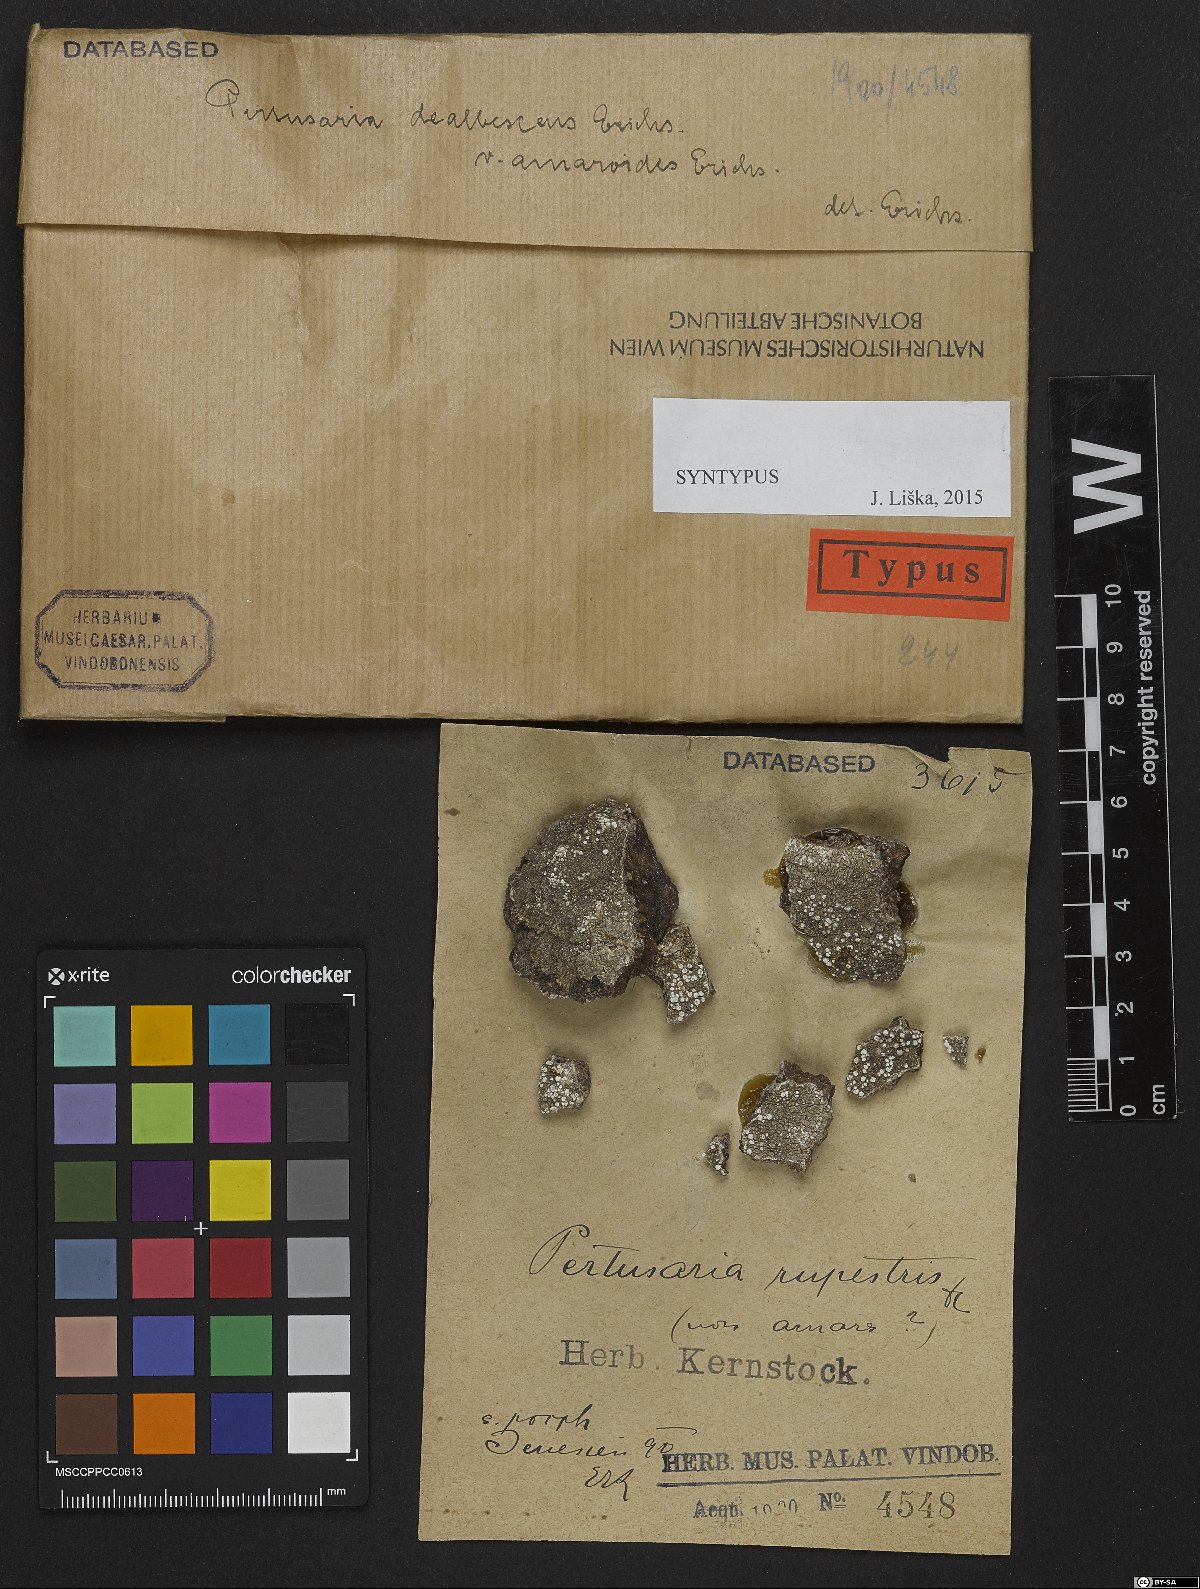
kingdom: Fungi
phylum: Ascomycota
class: Lecanoromycetes
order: Pertusariales
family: Pertusariaceae
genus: Lepra
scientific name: Lepra aspergilla
